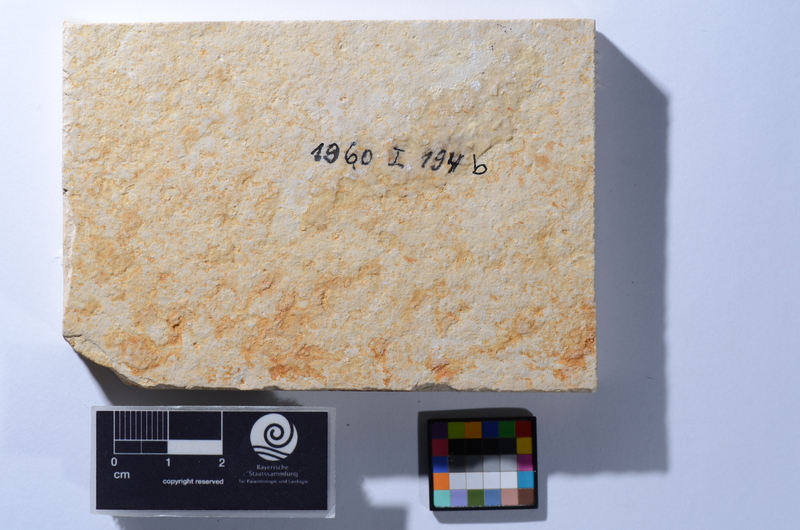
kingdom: Animalia
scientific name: Animalia
